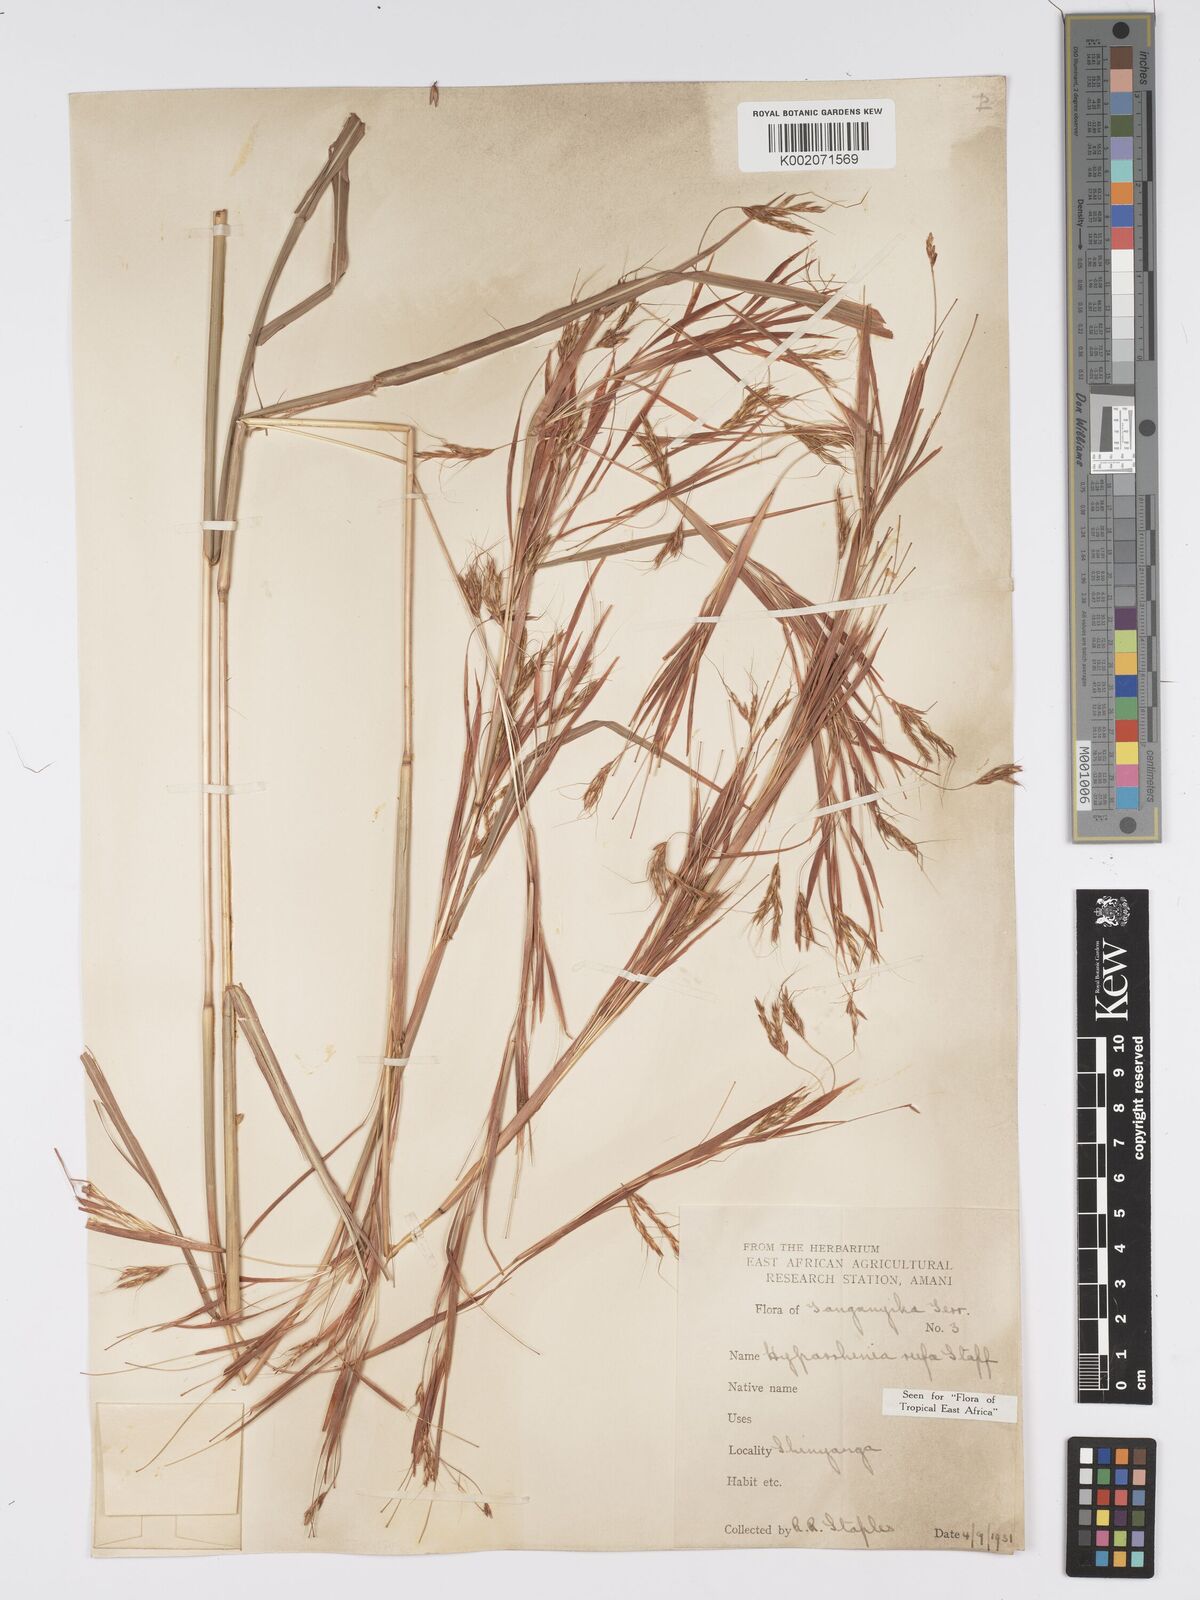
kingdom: Plantae
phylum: Tracheophyta
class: Liliopsida
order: Poales
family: Poaceae
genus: Hyparrhenia
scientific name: Hyparrhenia rufa
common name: Jaraguagrass
